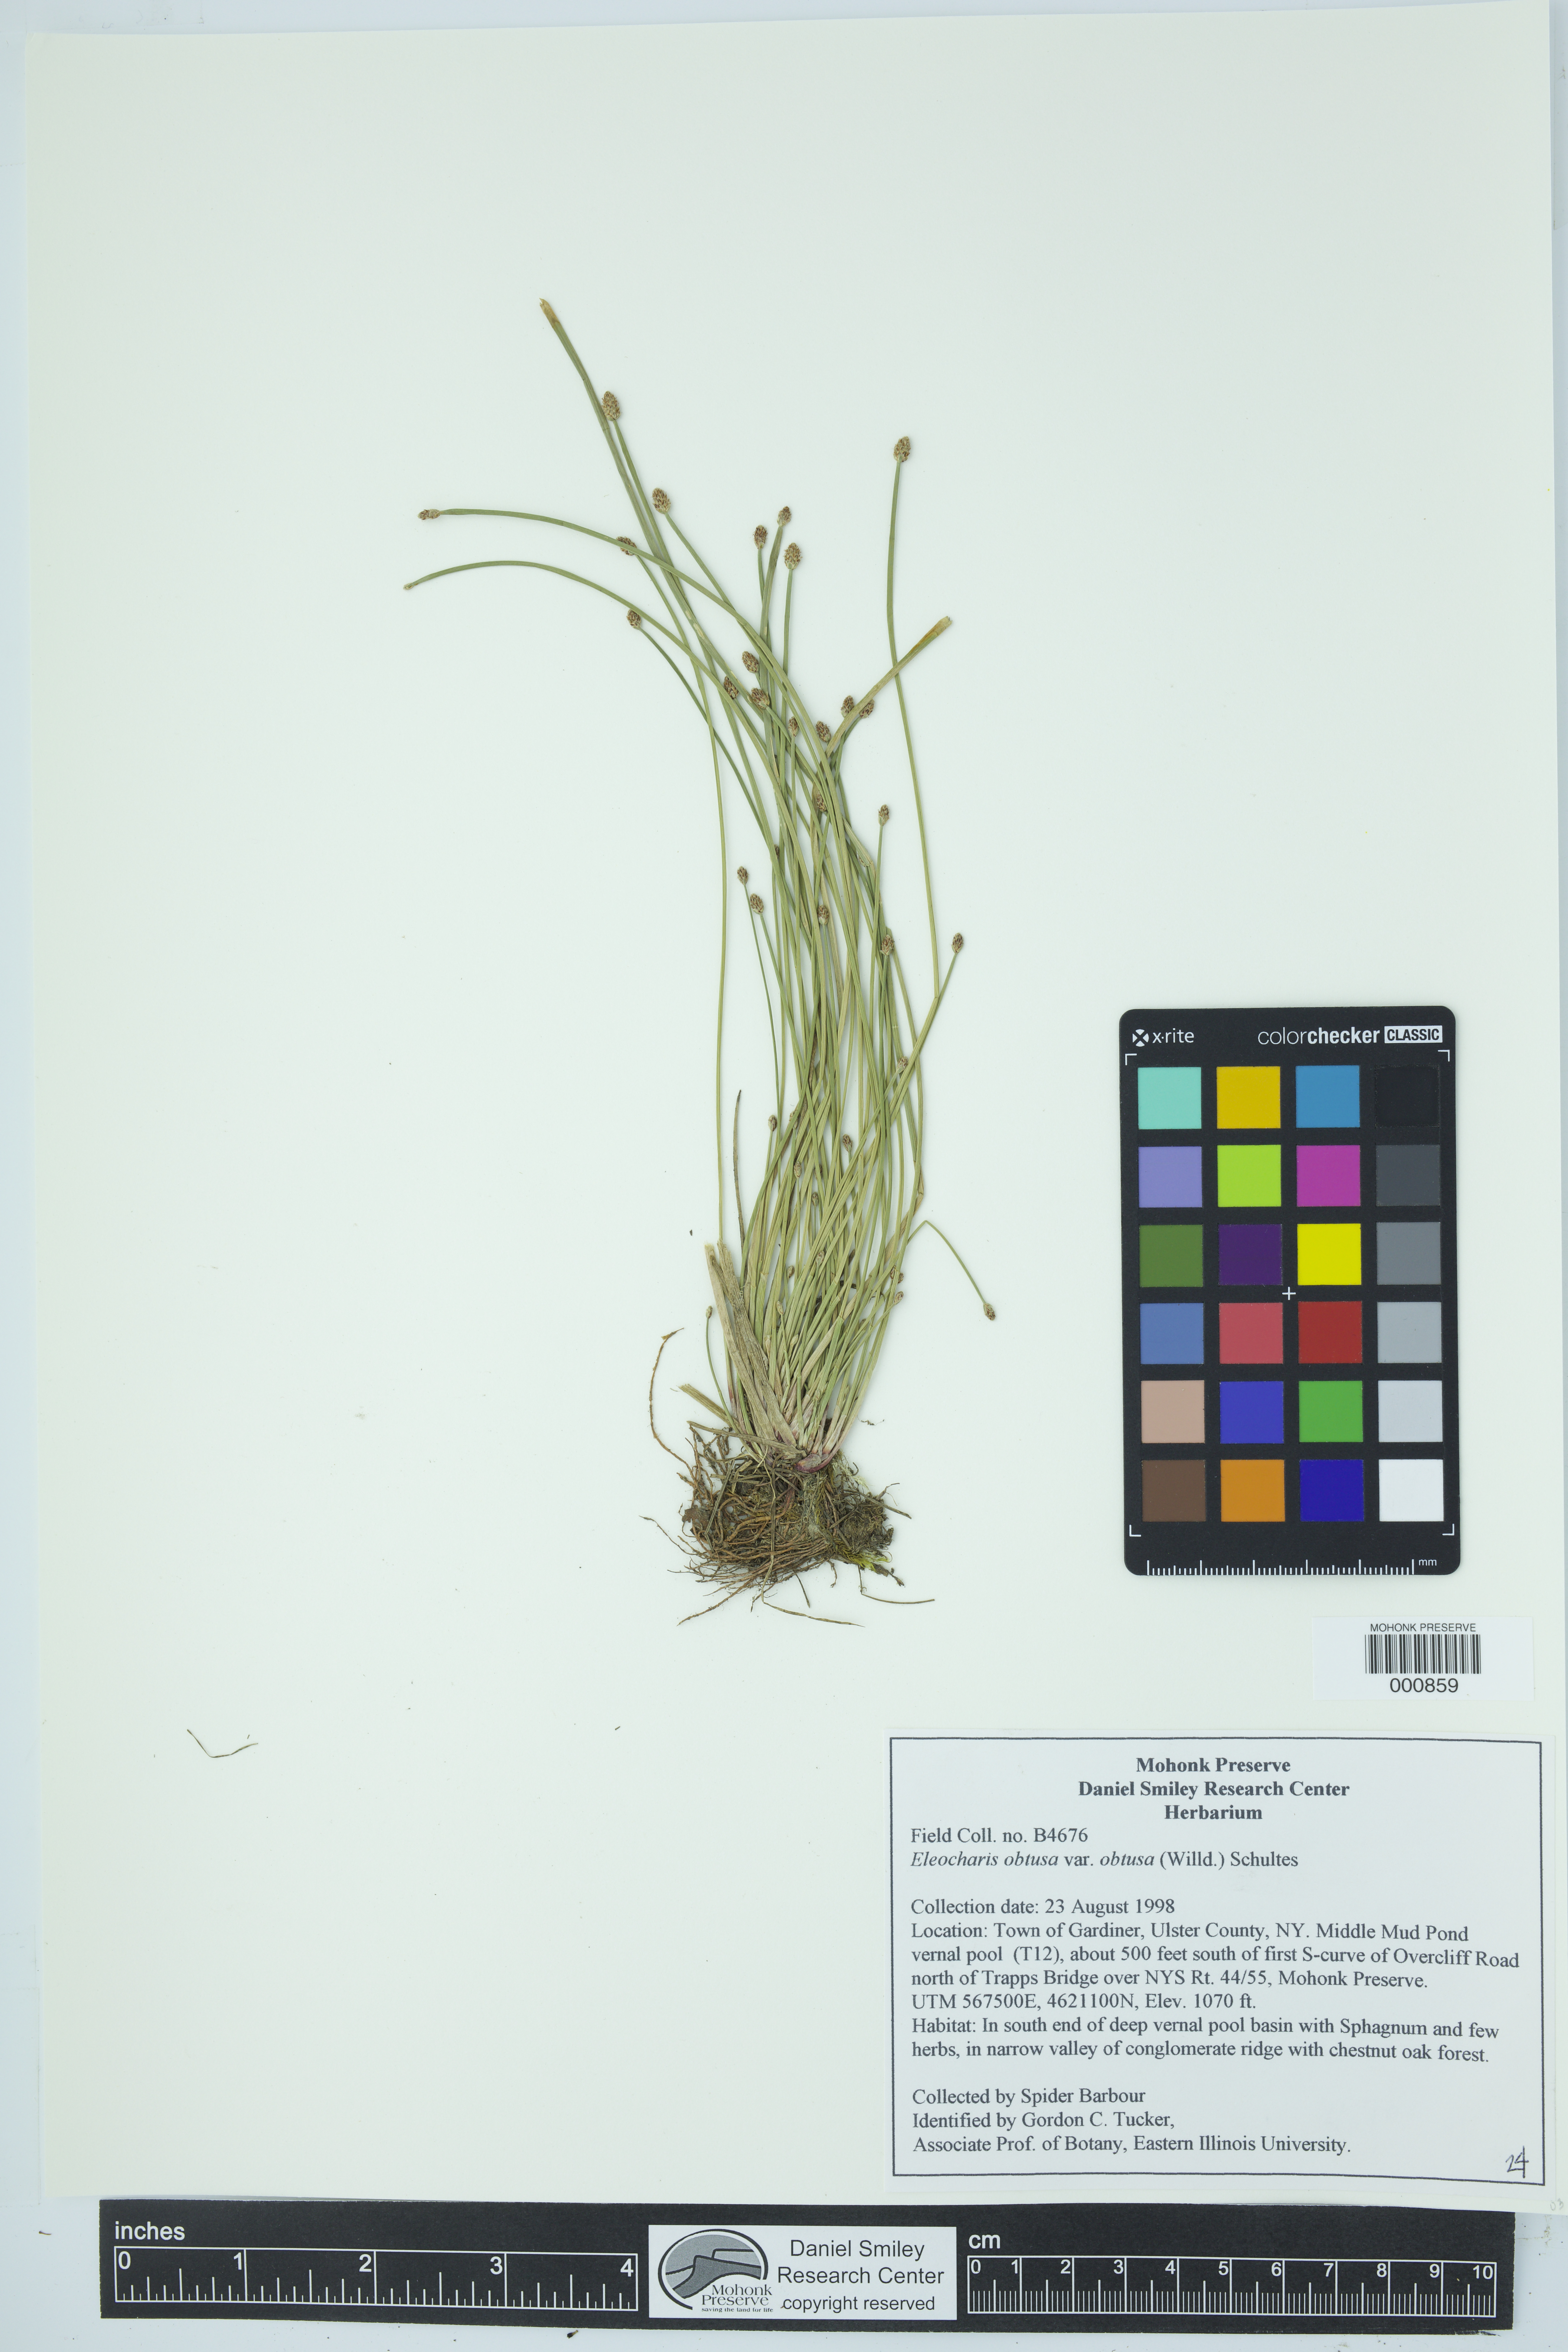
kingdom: Plantae
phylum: Tracheophyta
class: Liliopsida
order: Poales
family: Cyperaceae
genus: Eleocharis
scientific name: Eleocharis obtusa
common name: Blunt spikerush
